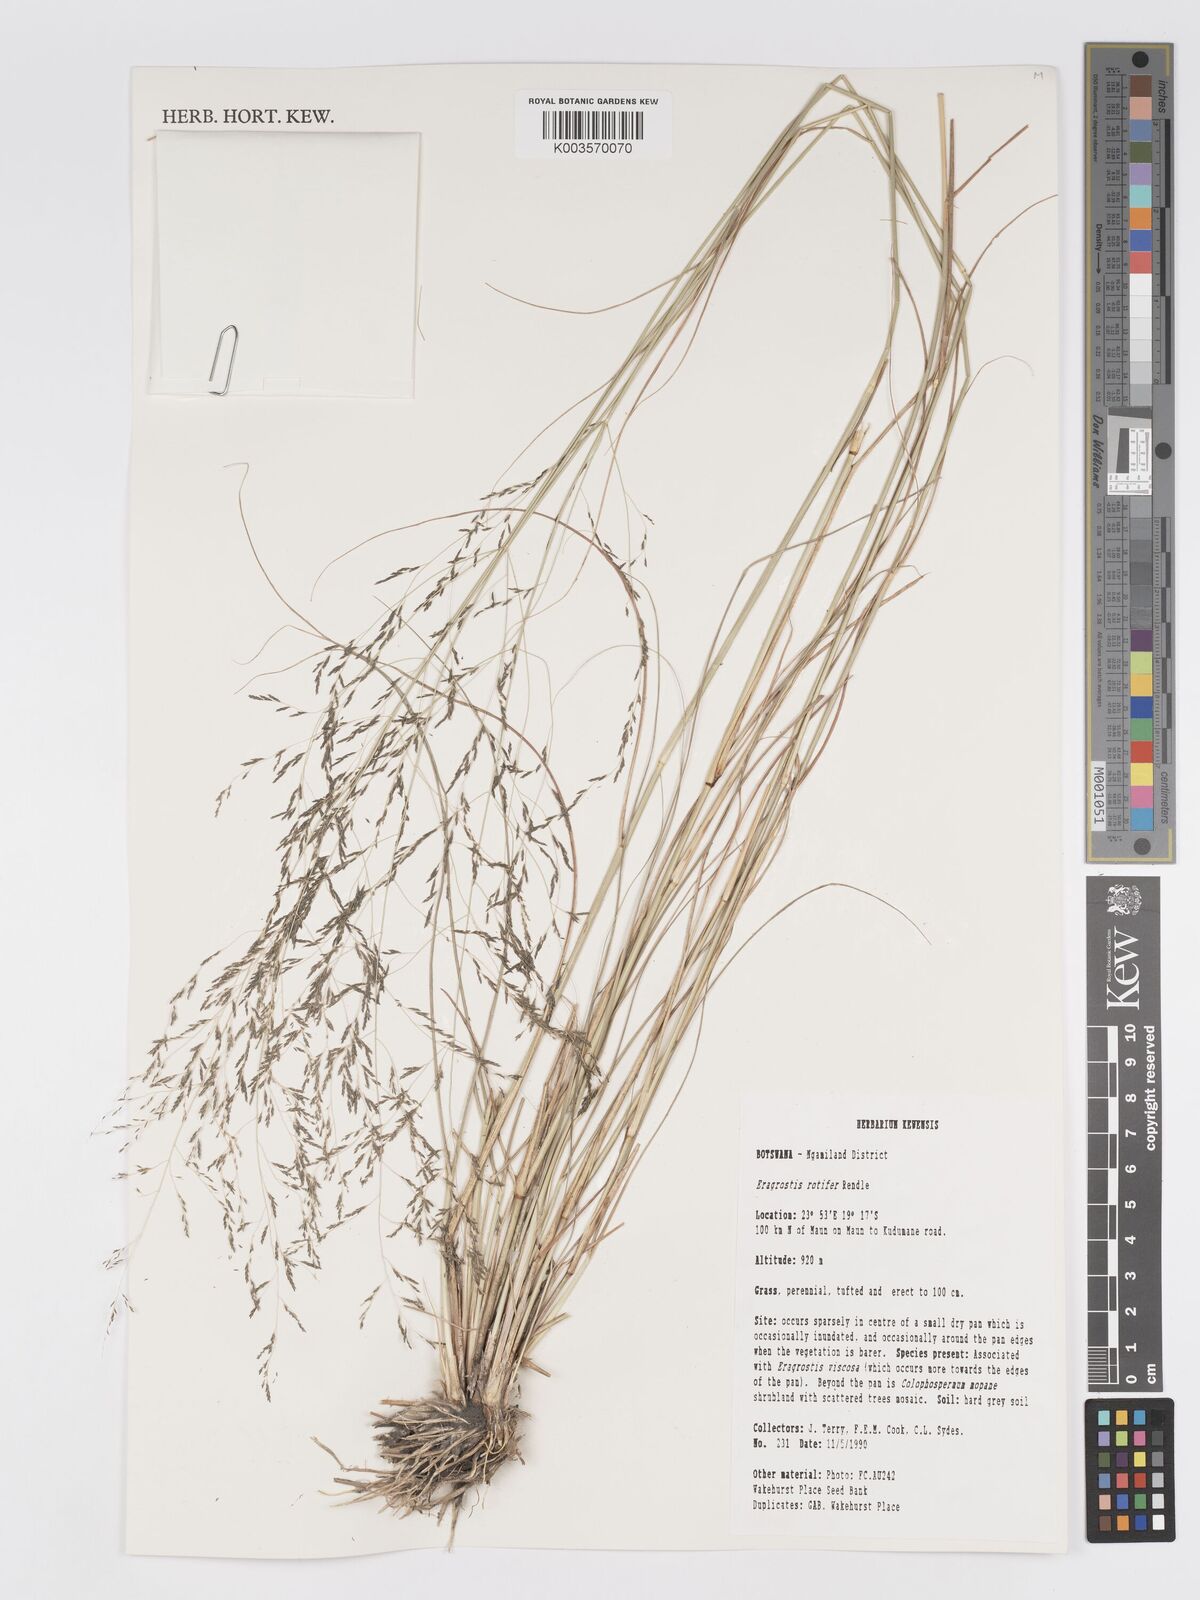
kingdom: Plantae
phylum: Tracheophyta
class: Liliopsida
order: Poales
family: Poaceae
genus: Eragrostis
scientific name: Eragrostis rotifer
